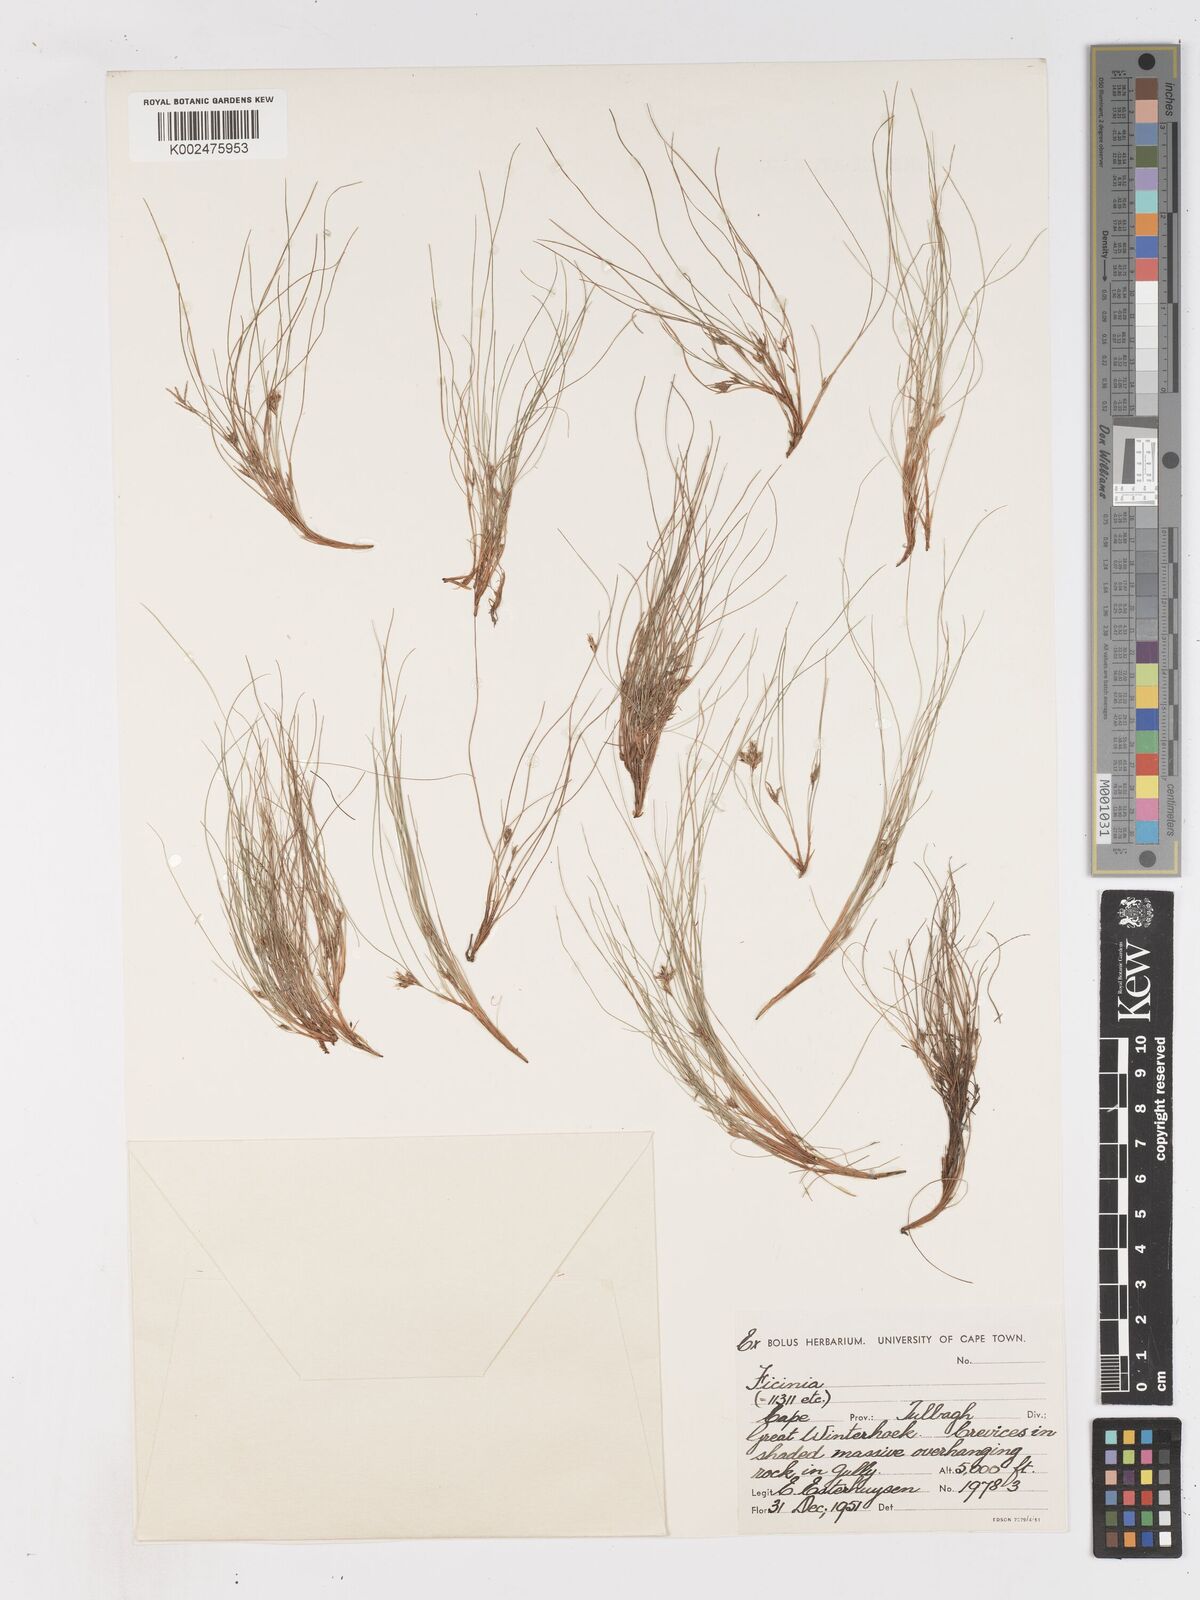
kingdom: Plantae
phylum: Tracheophyta
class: Liliopsida
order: Poales
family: Cyperaceae
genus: Ficinia
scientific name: Ficinia esterhuyseniae
